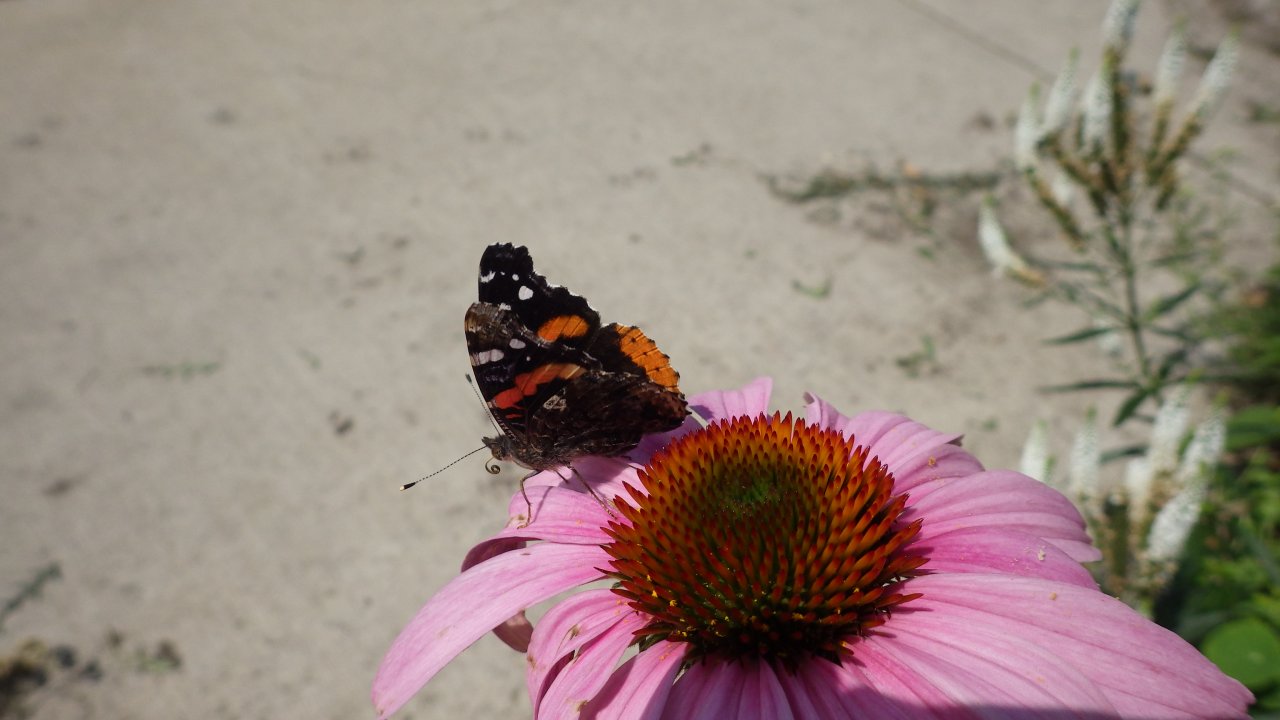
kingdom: Animalia
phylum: Arthropoda
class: Insecta
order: Lepidoptera
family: Nymphalidae
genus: Vanessa
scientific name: Vanessa atalanta
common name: Red Admiral
